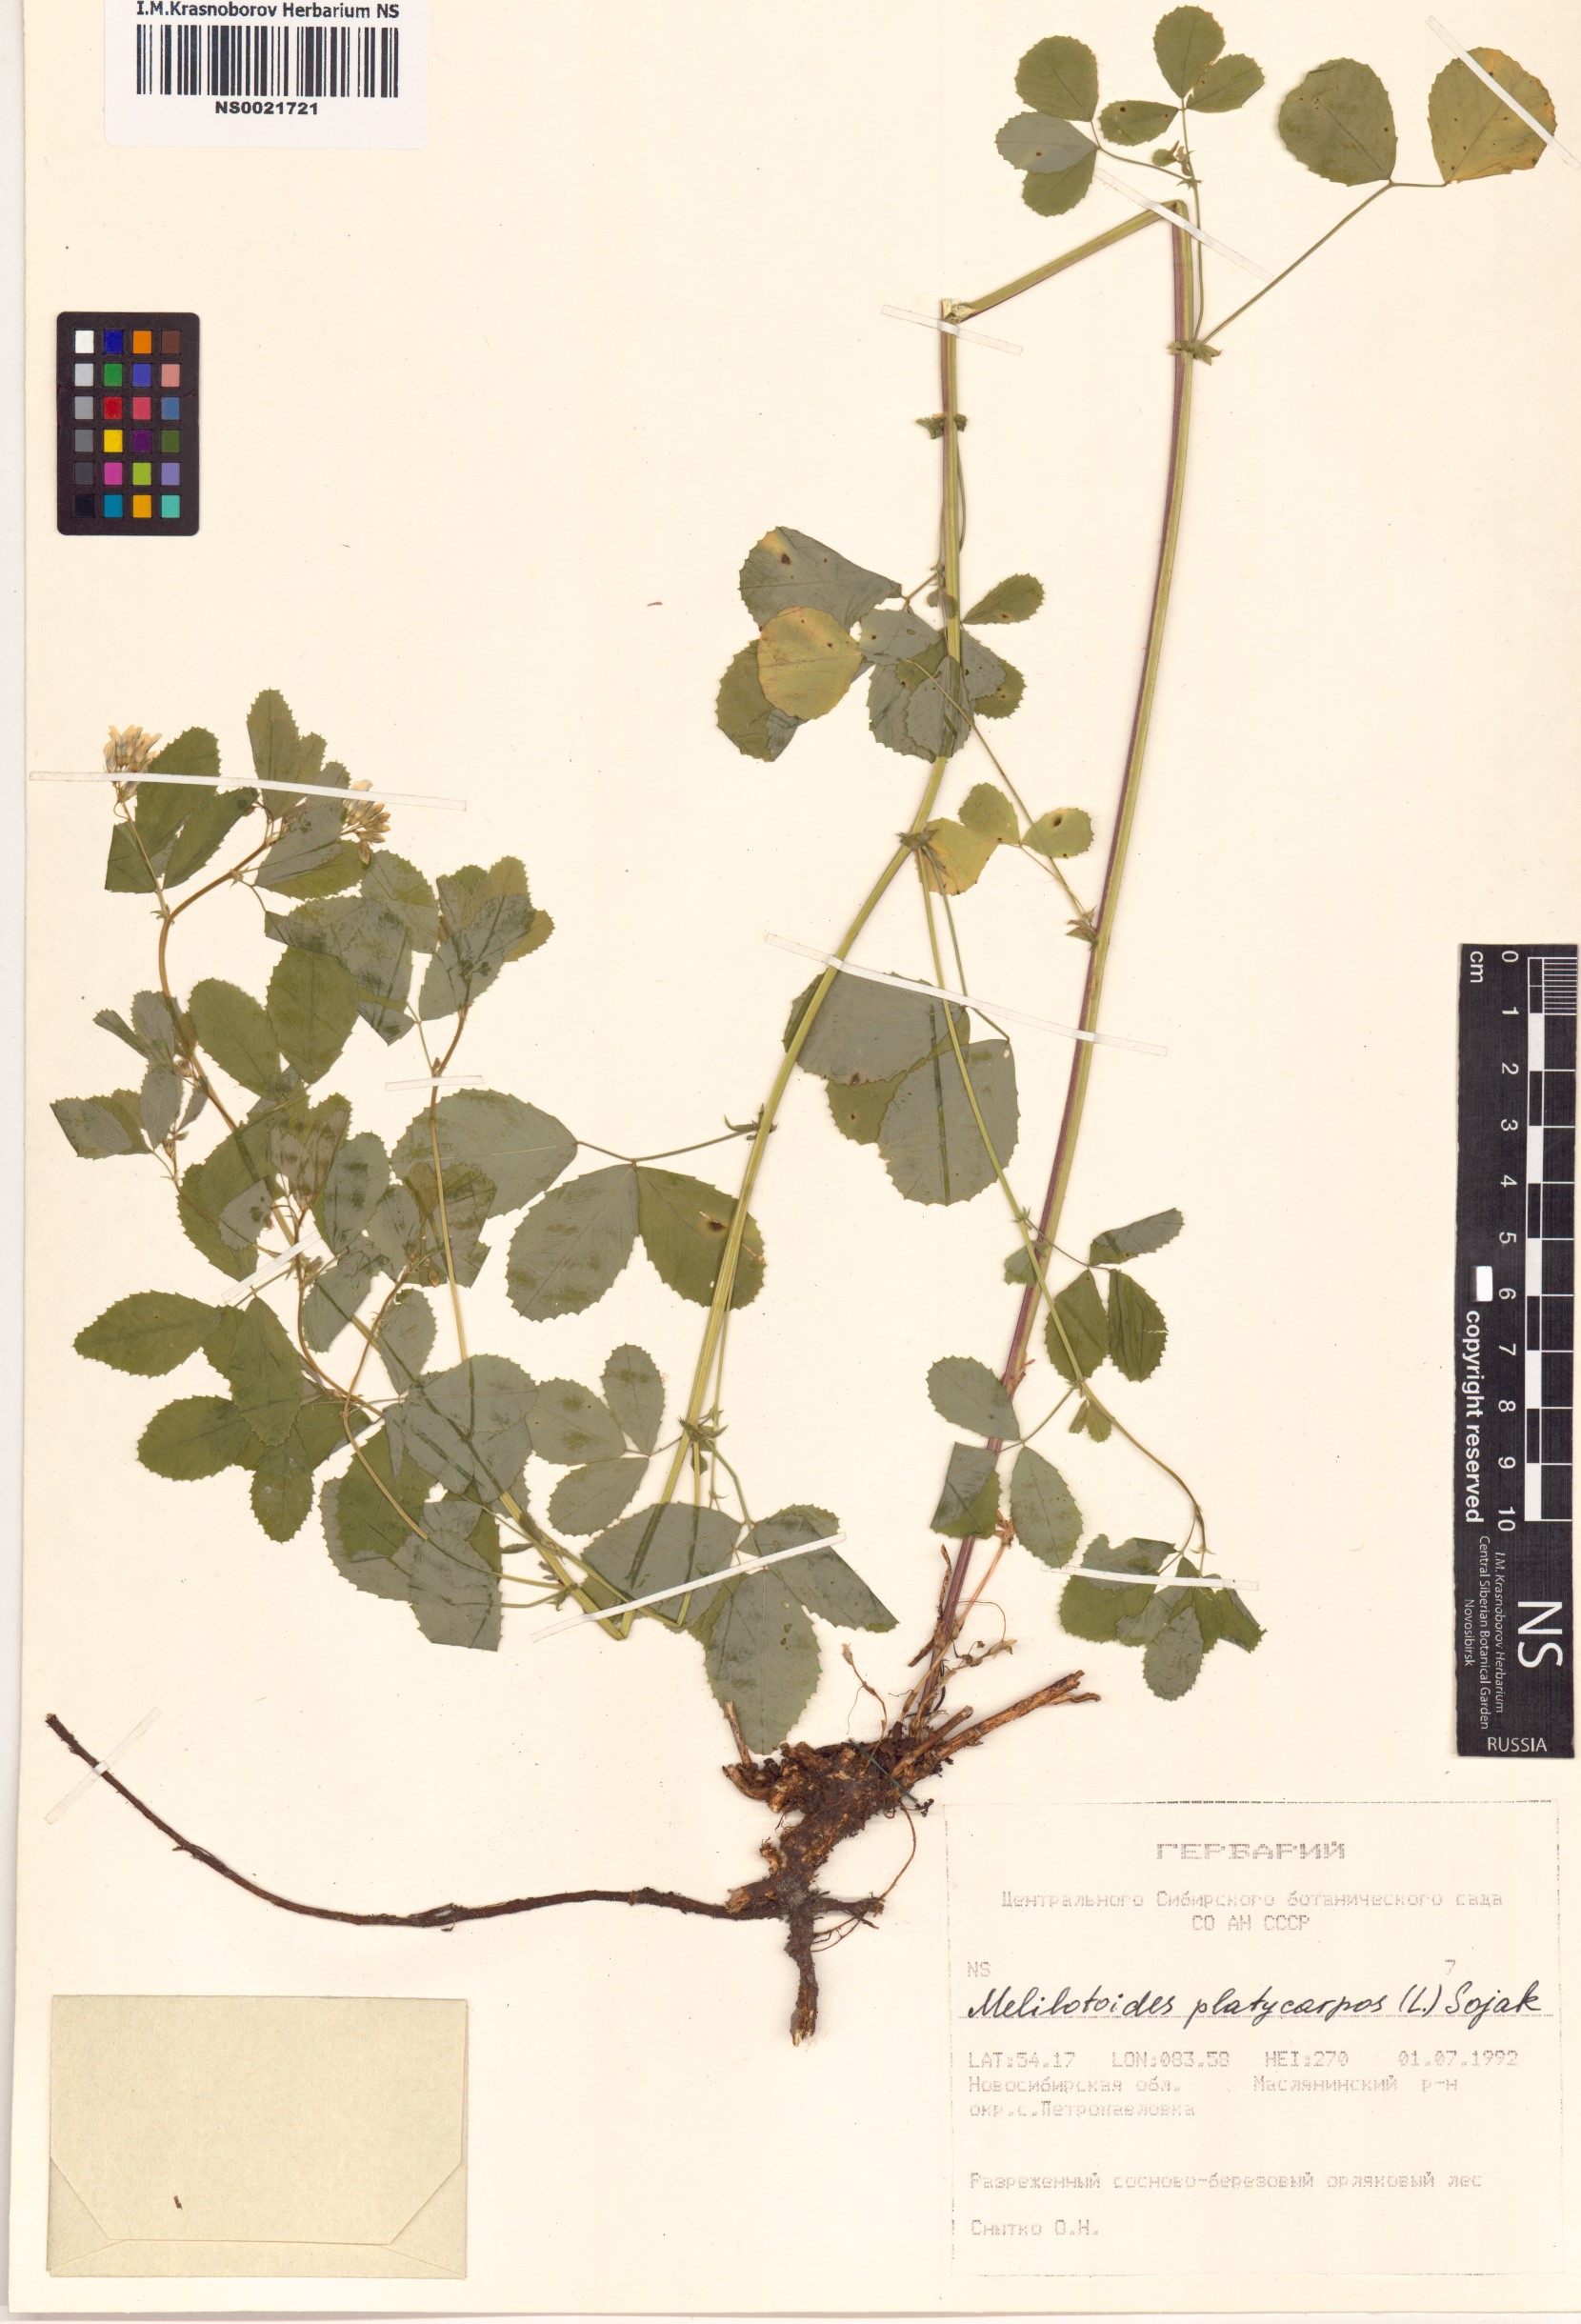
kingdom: Plantae
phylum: Tracheophyta
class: Magnoliopsida
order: Fabales
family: Fabaceae
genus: Medicago
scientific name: Medicago platycarpos
